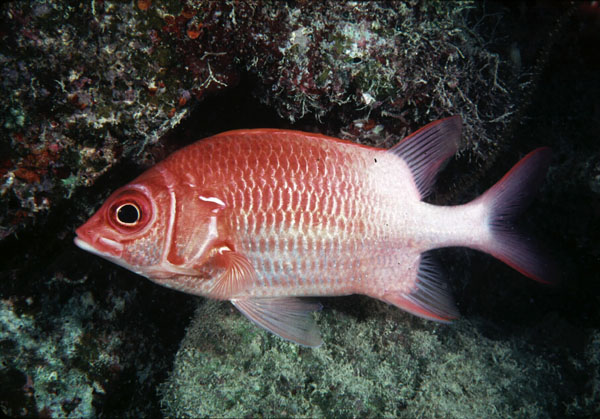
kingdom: Animalia
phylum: Chordata
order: Beryciformes
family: Holocentridae
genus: Sargocentron
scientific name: Sargocentron caudimaculatum
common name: Fanfin soldier
